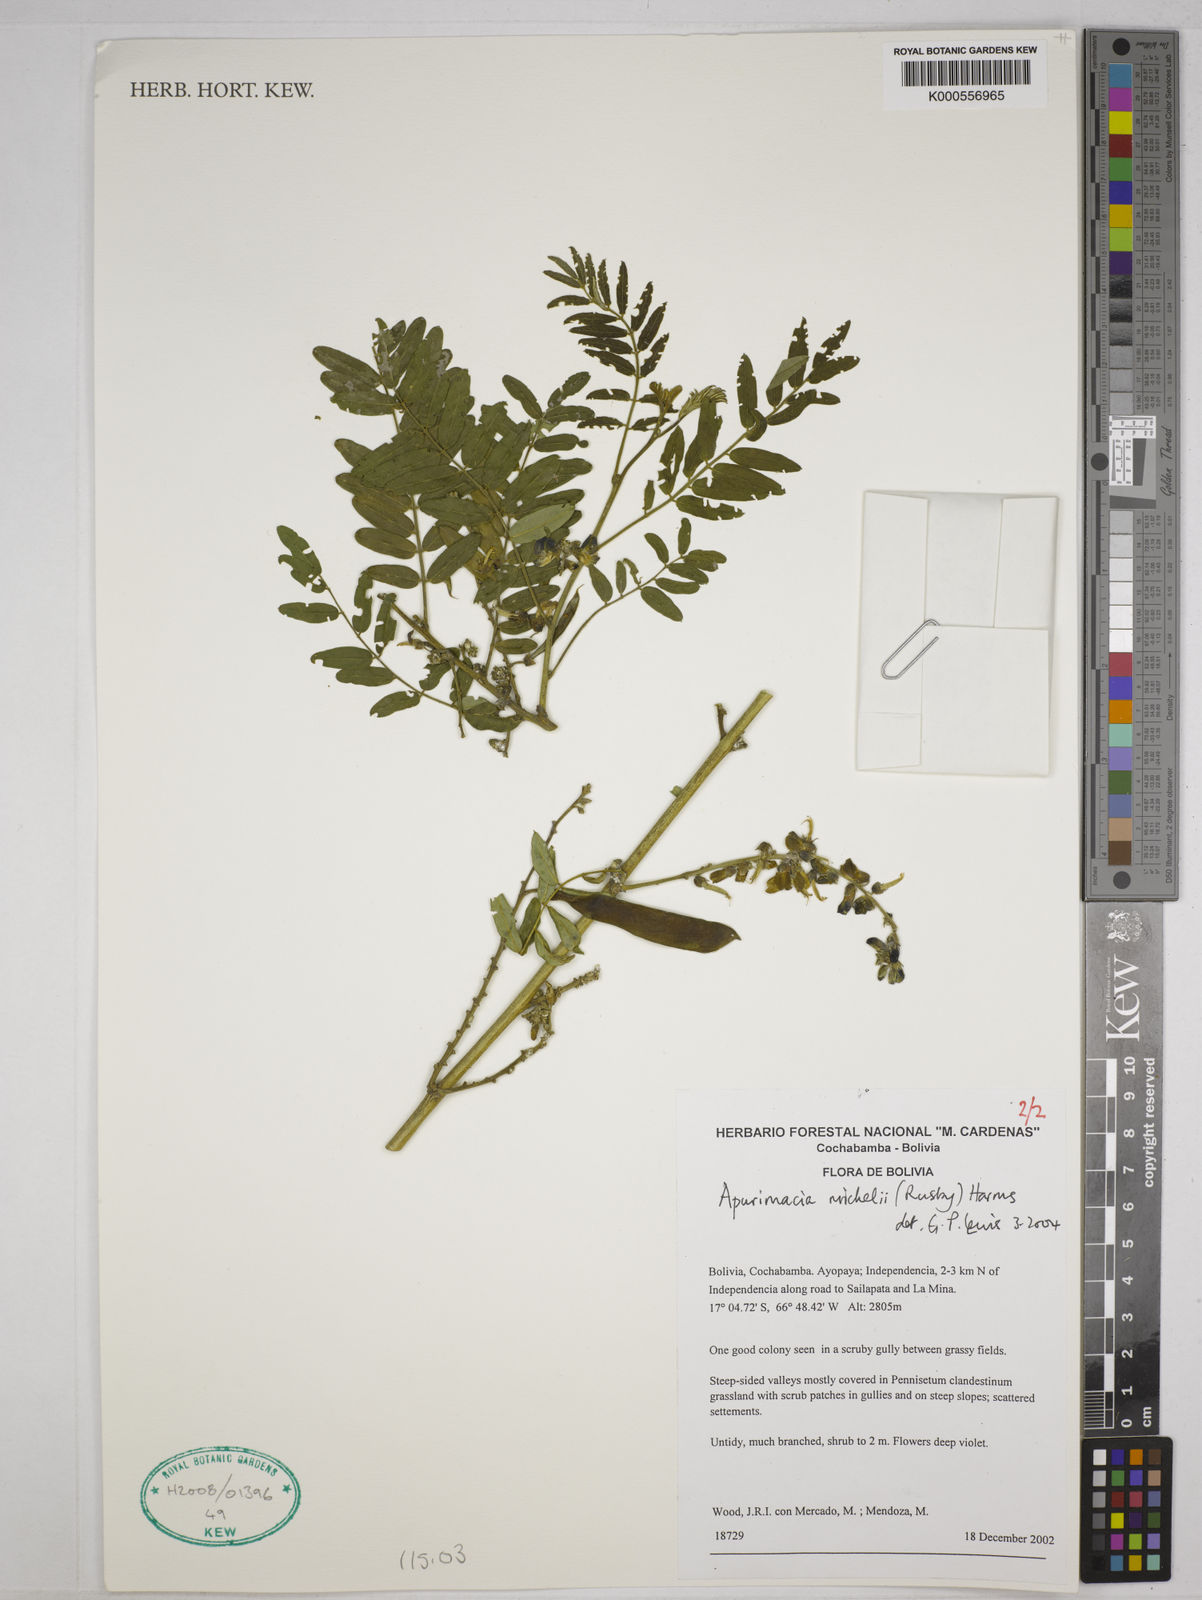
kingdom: Plantae
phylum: Tracheophyta
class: Magnoliopsida
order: Fabales
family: Fabaceae
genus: Apurimacia
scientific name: Apurimacia boliviana
